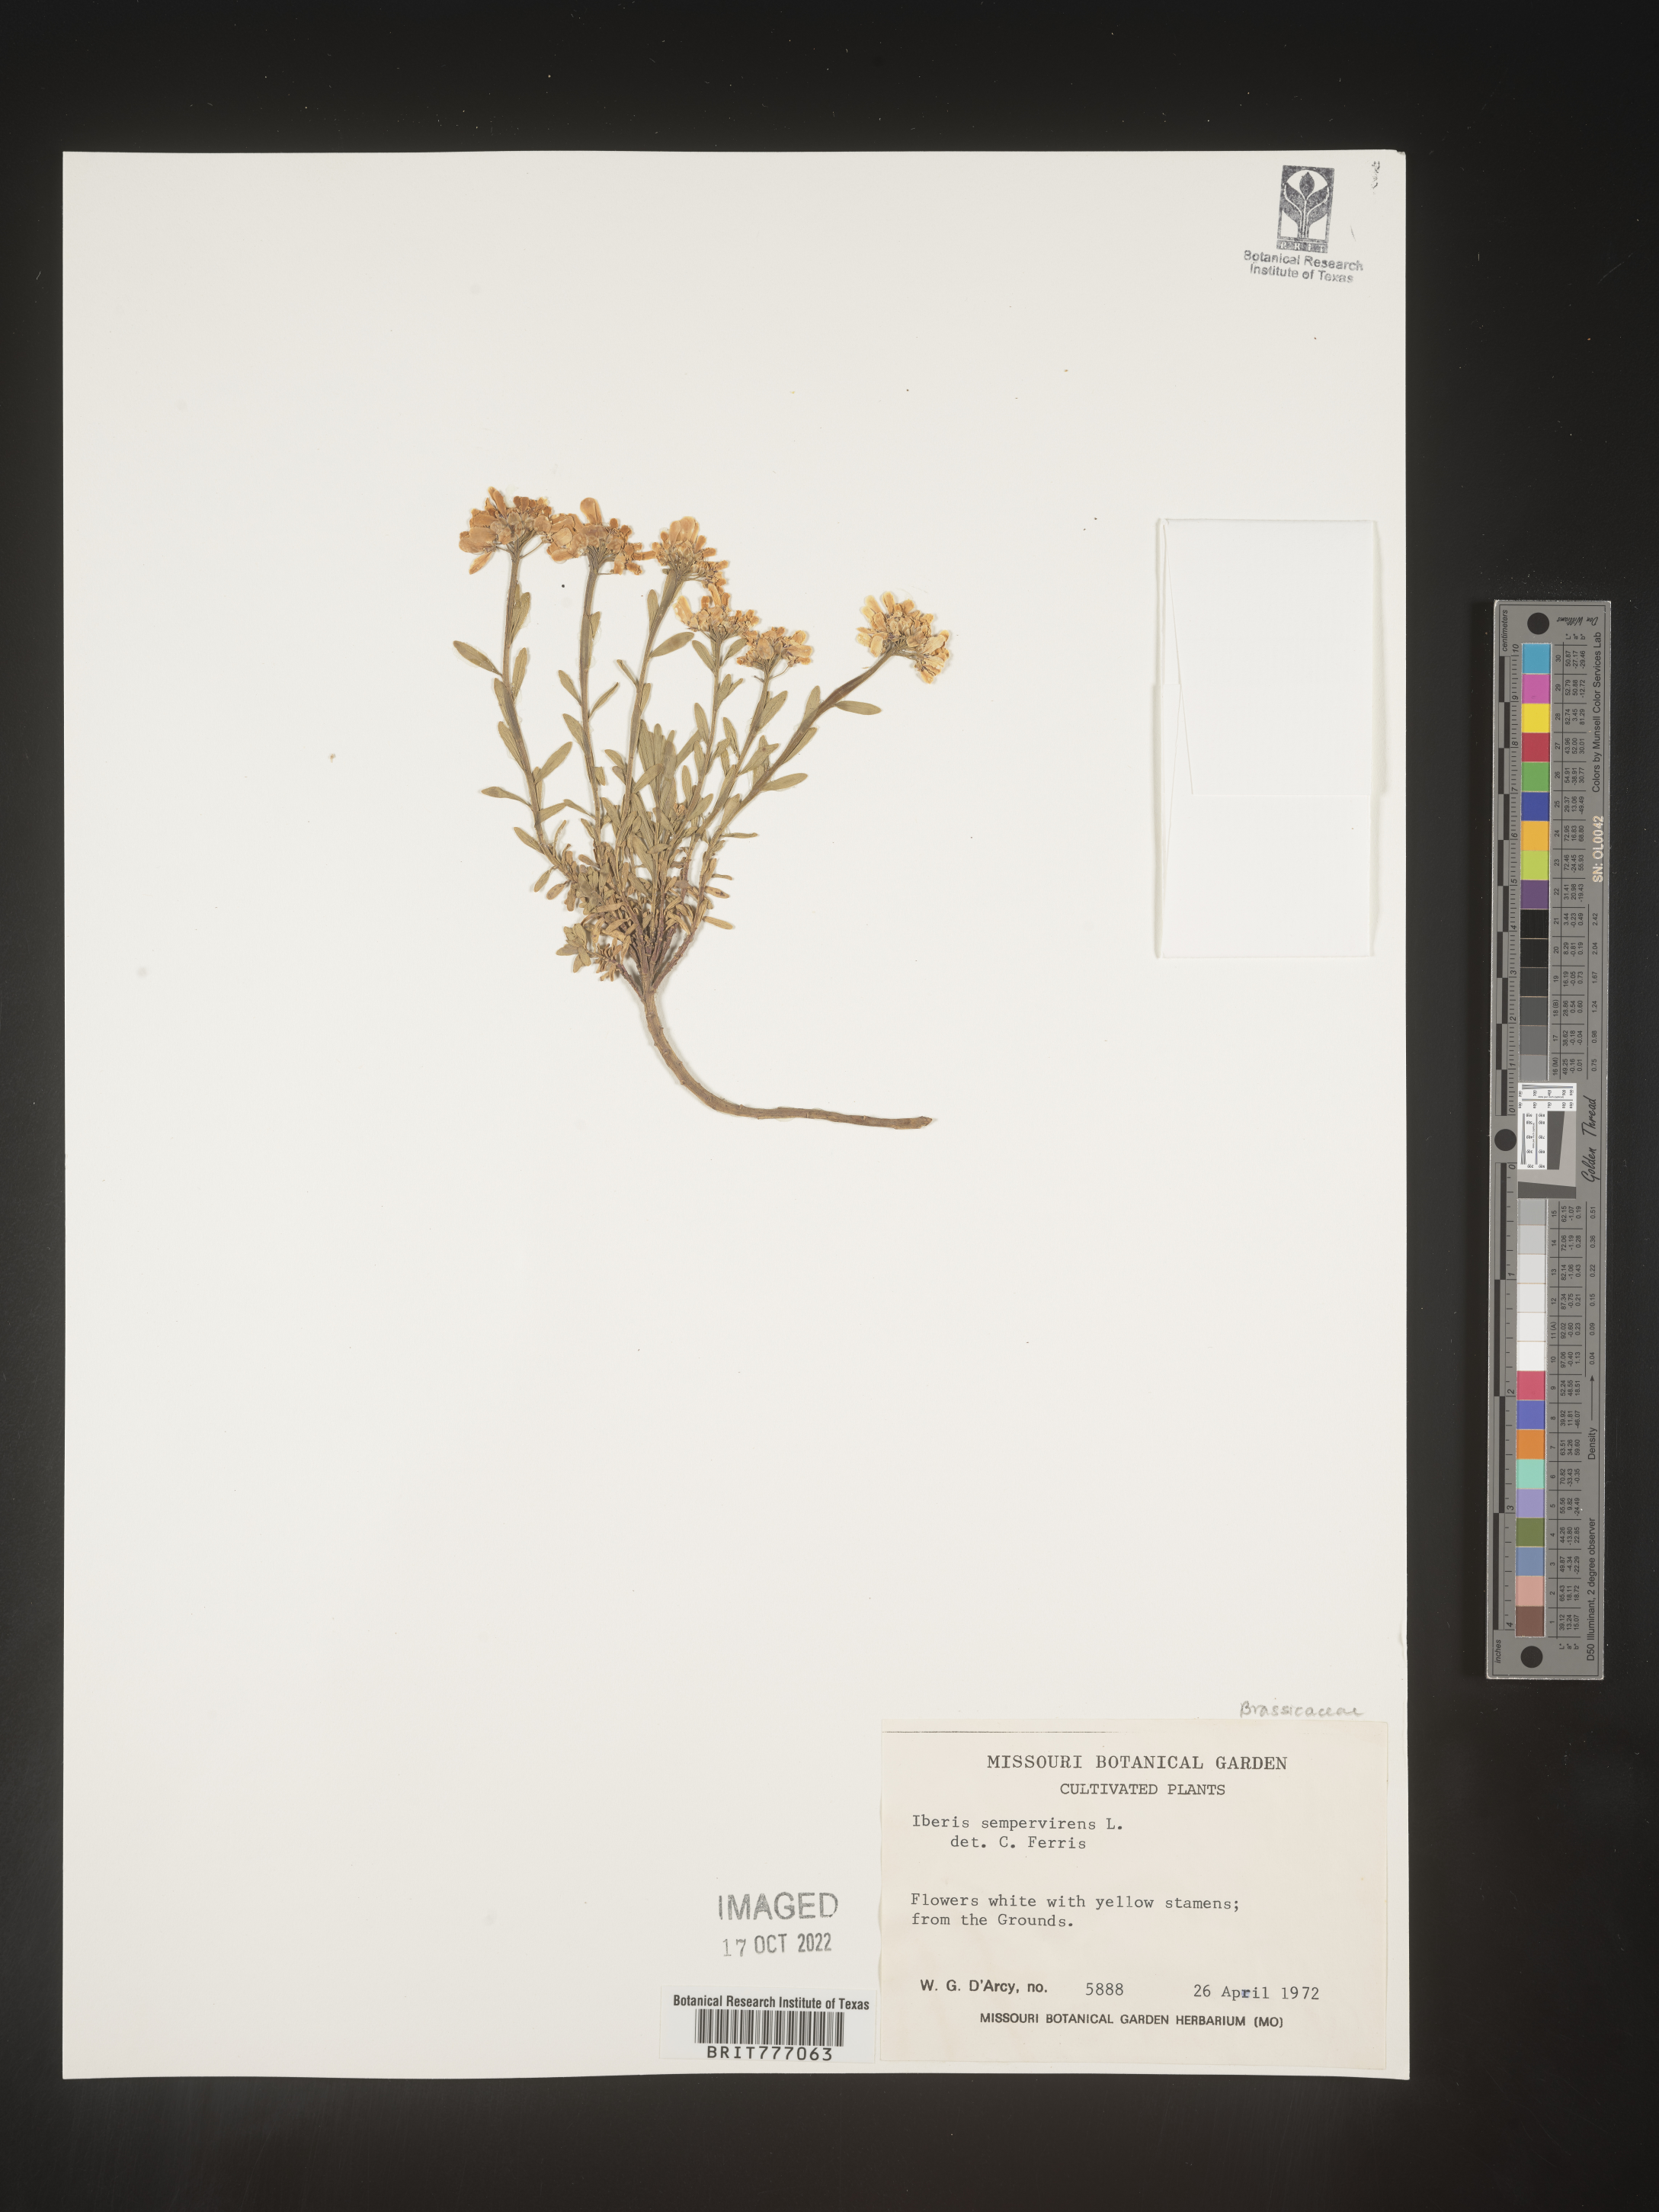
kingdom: Plantae
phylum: Tracheophyta
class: Magnoliopsida
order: Brassicales
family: Brassicaceae
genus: Iberis
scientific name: Iberis
